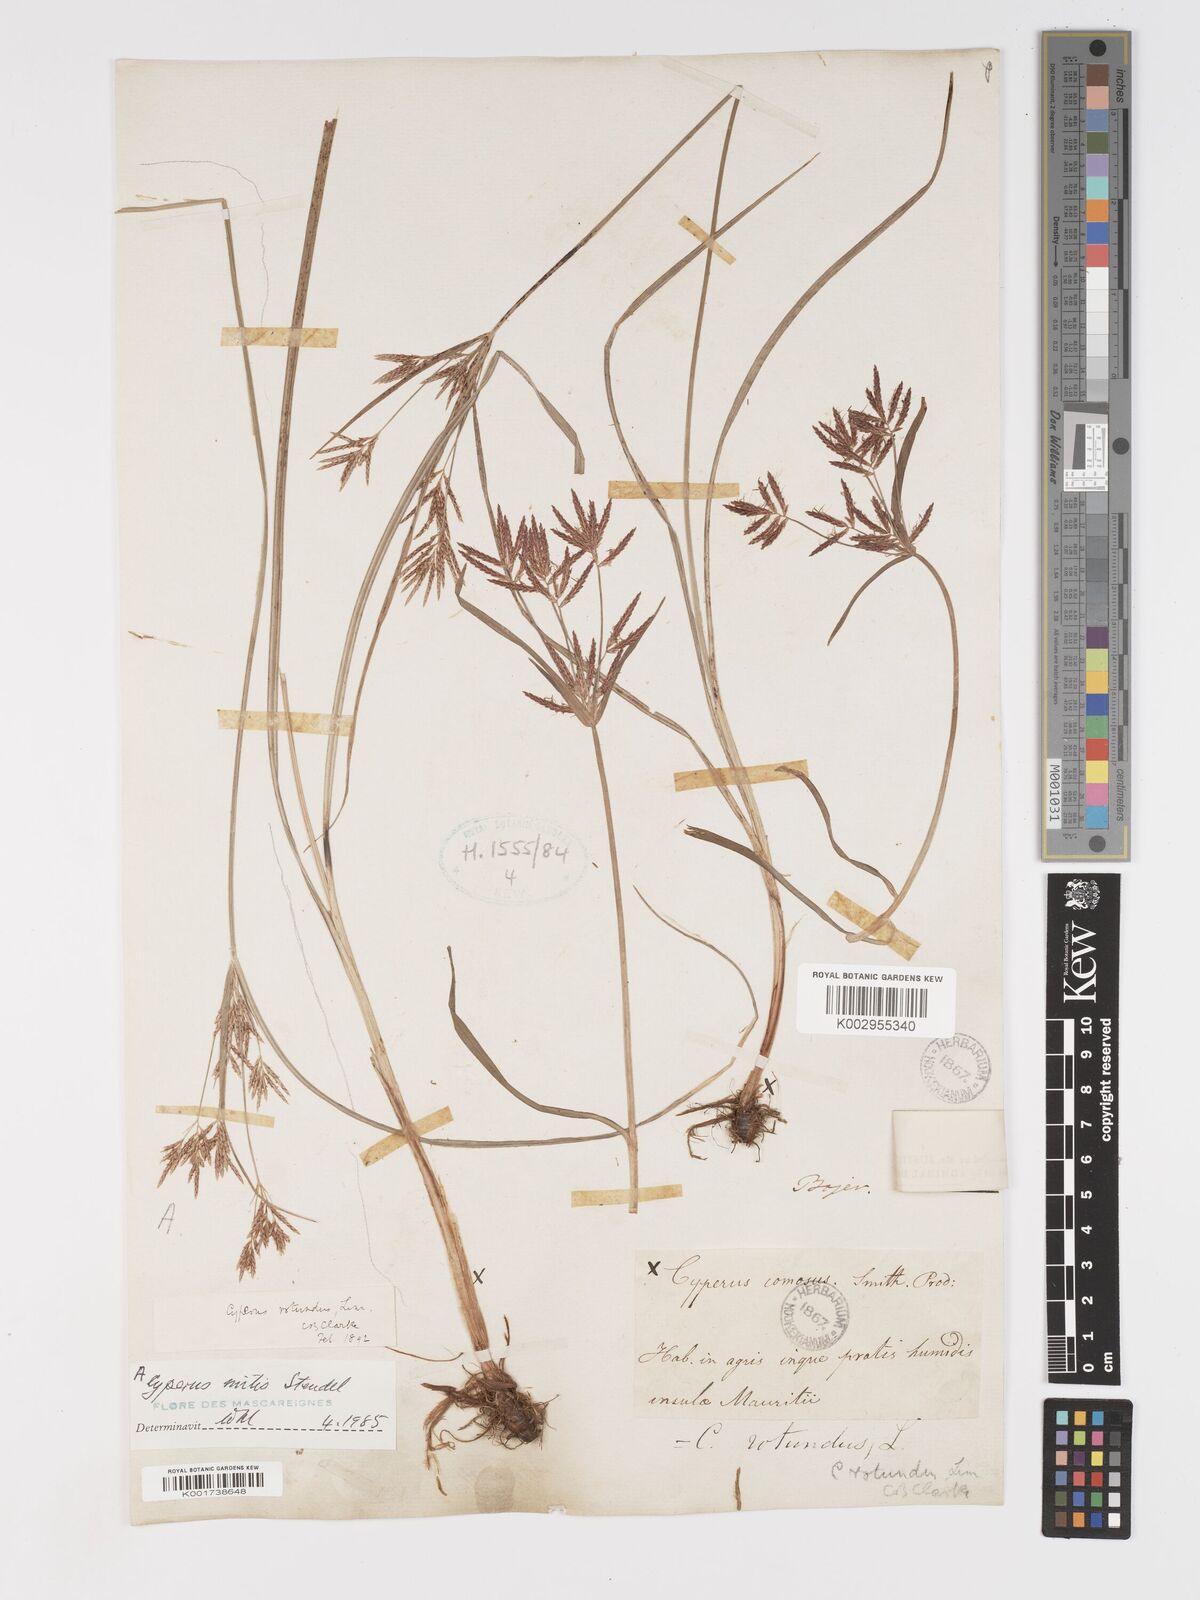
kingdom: Plantae
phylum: Tracheophyta
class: Liliopsida
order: Poales
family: Cyperaceae
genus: Cyperus
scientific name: Cyperus mitis
